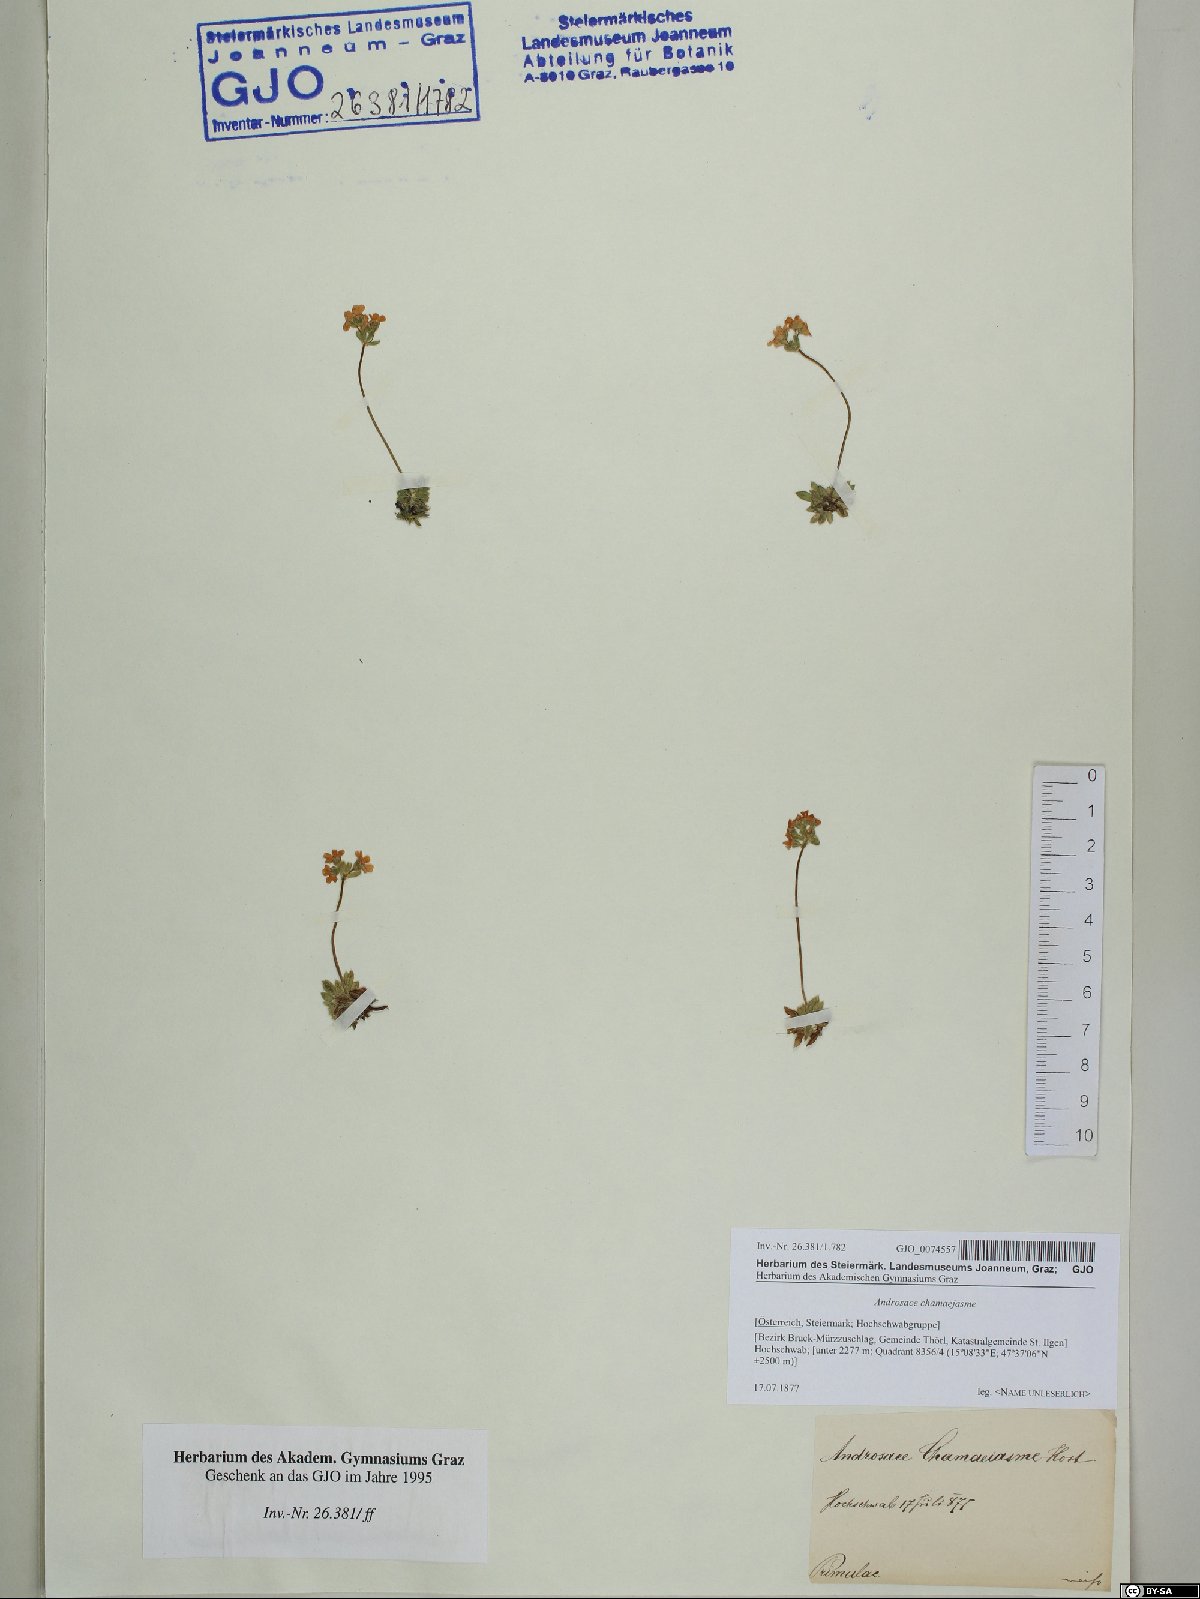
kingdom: Plantae
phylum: Tracheophyta
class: Magnoliopsida
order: Ericales
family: Primulaceae
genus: Androsace
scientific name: Androsace chamaejasme
